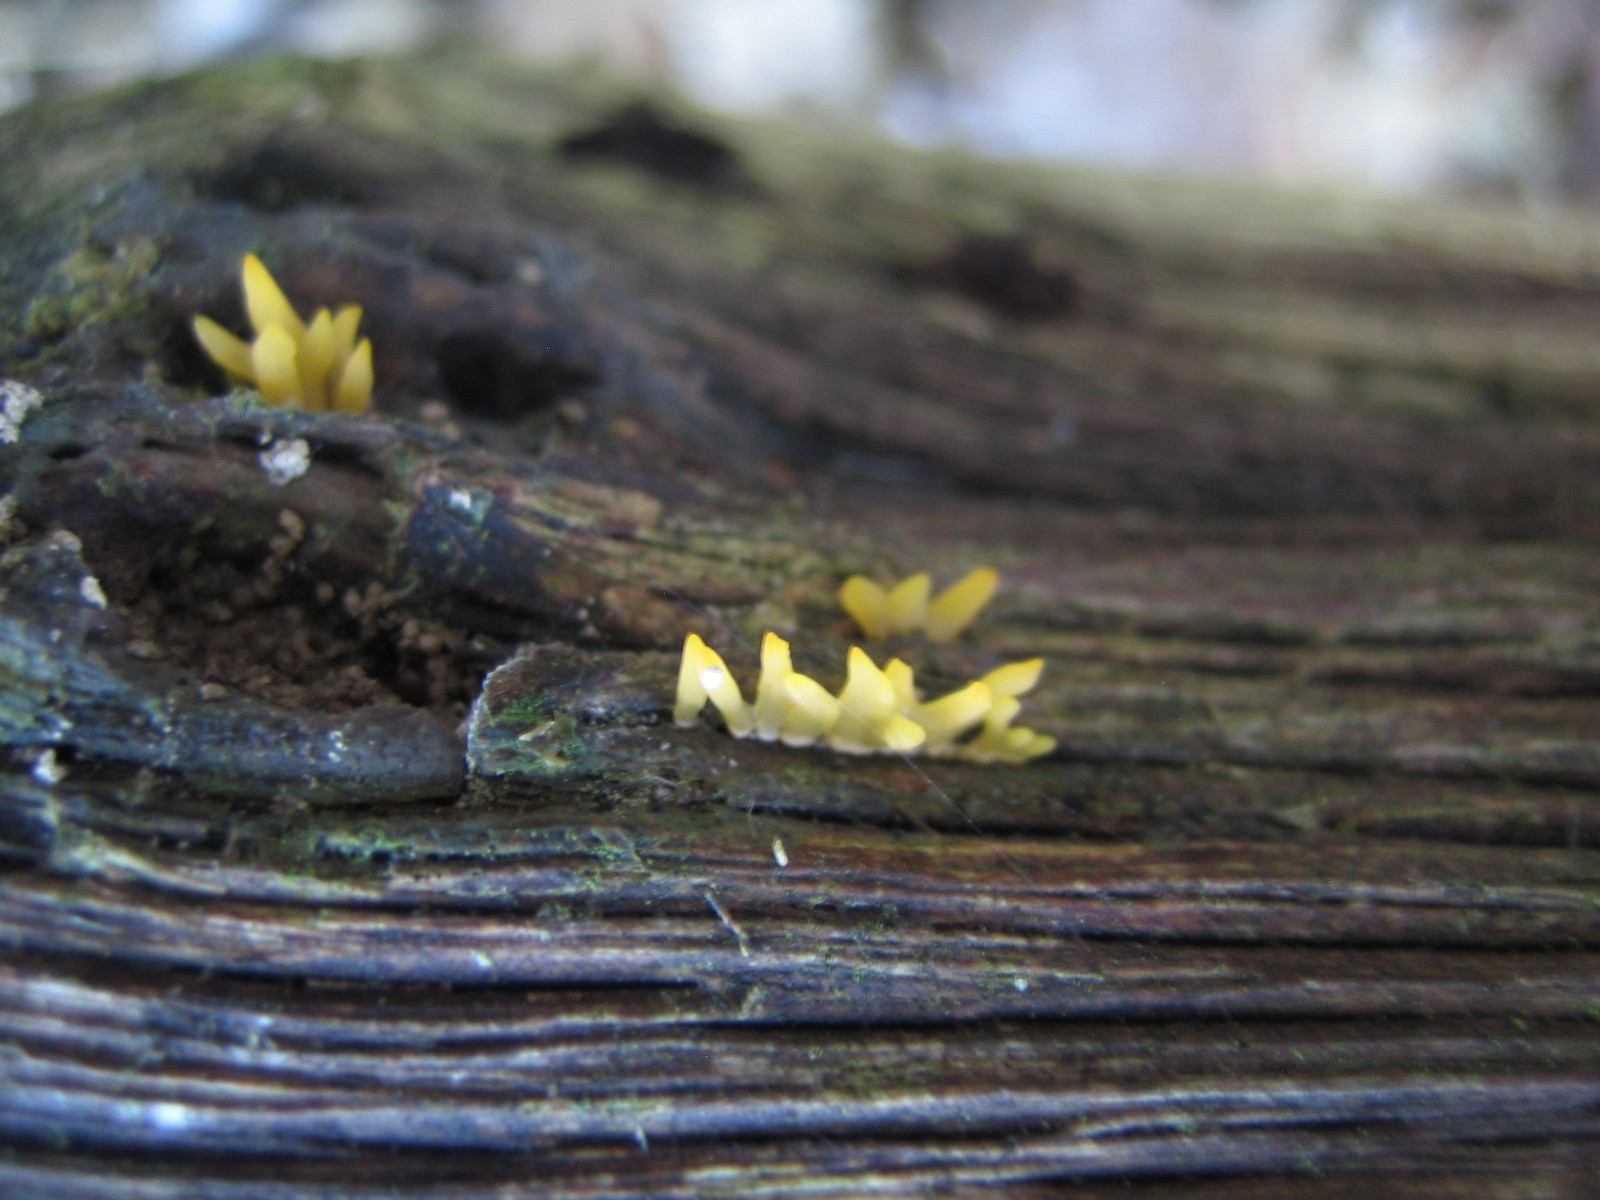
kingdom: Fungi
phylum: Basidiomycota
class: Dacrymycetes
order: Dacrymycetales
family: Dacrymycetaceae
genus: Calocera
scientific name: Calocera cornea
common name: liden guldgaffel
